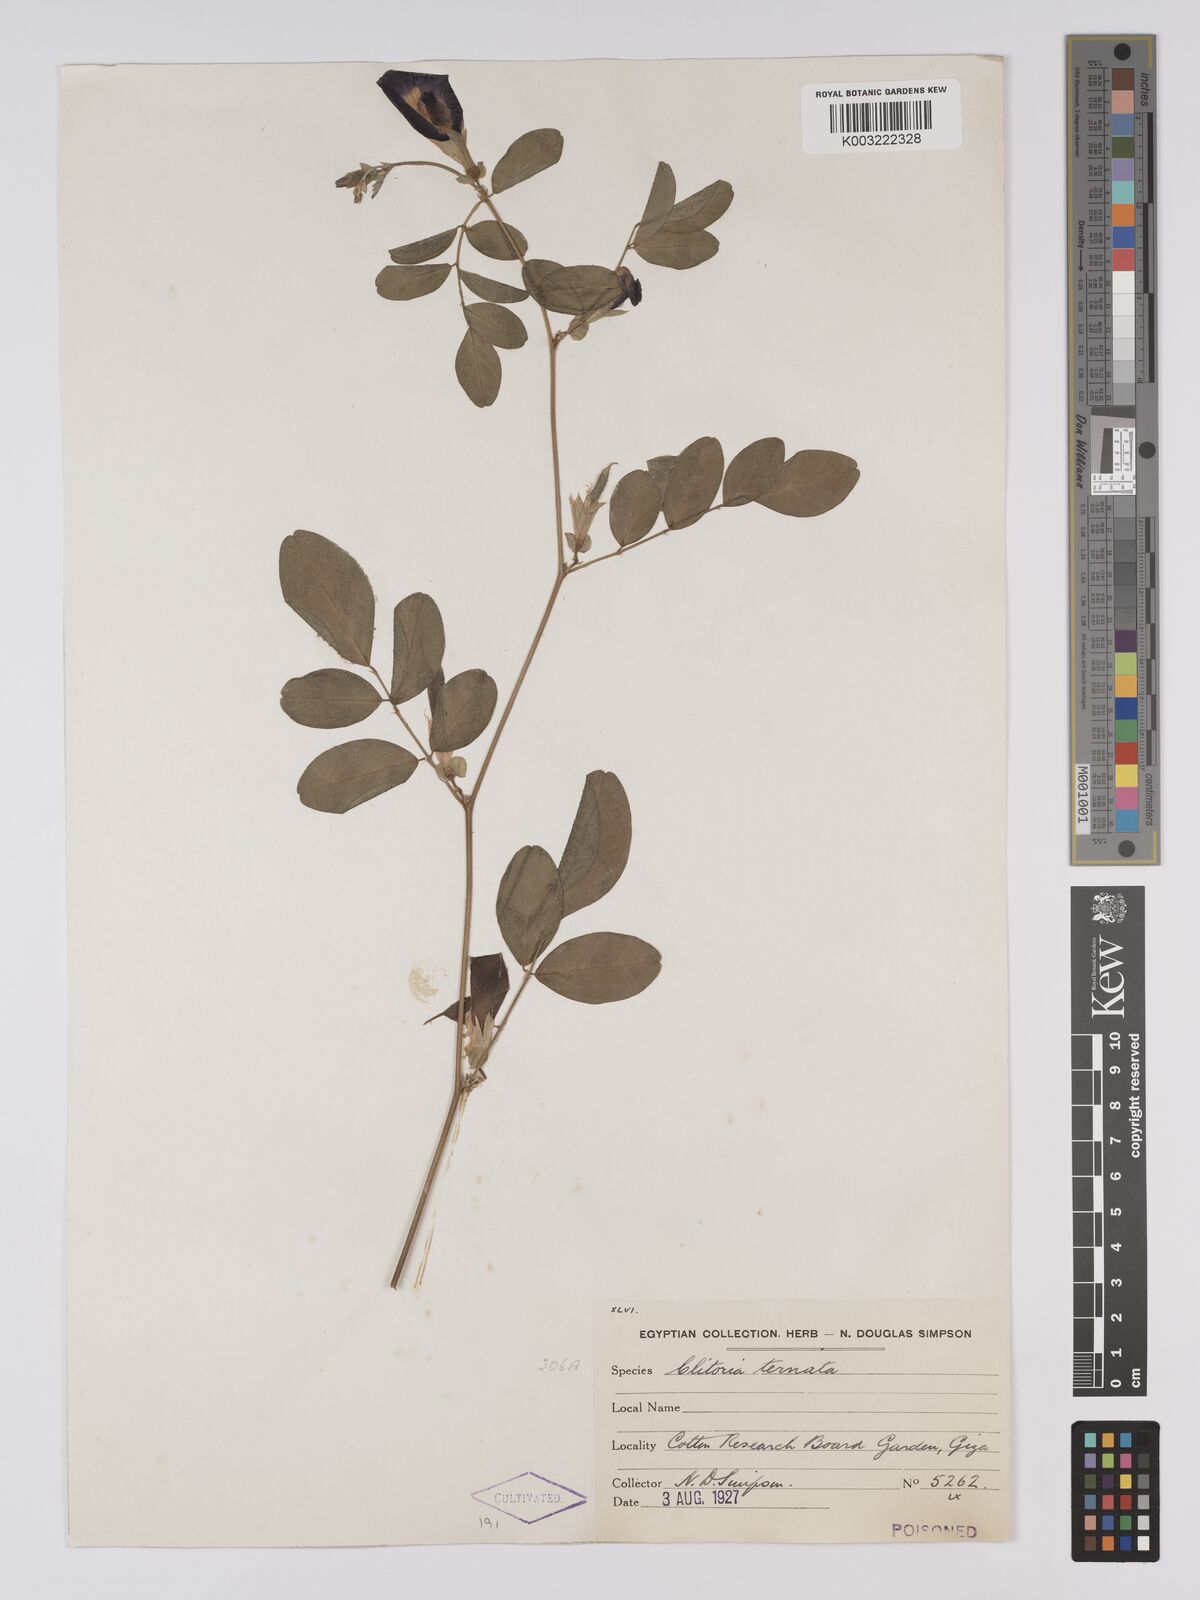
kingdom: Plantae
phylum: Tracheophyta
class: Magnoliopsida
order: Fabales
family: Fabaceae
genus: Clitoria
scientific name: Clitoria ternatea
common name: Asian pigeonwings
